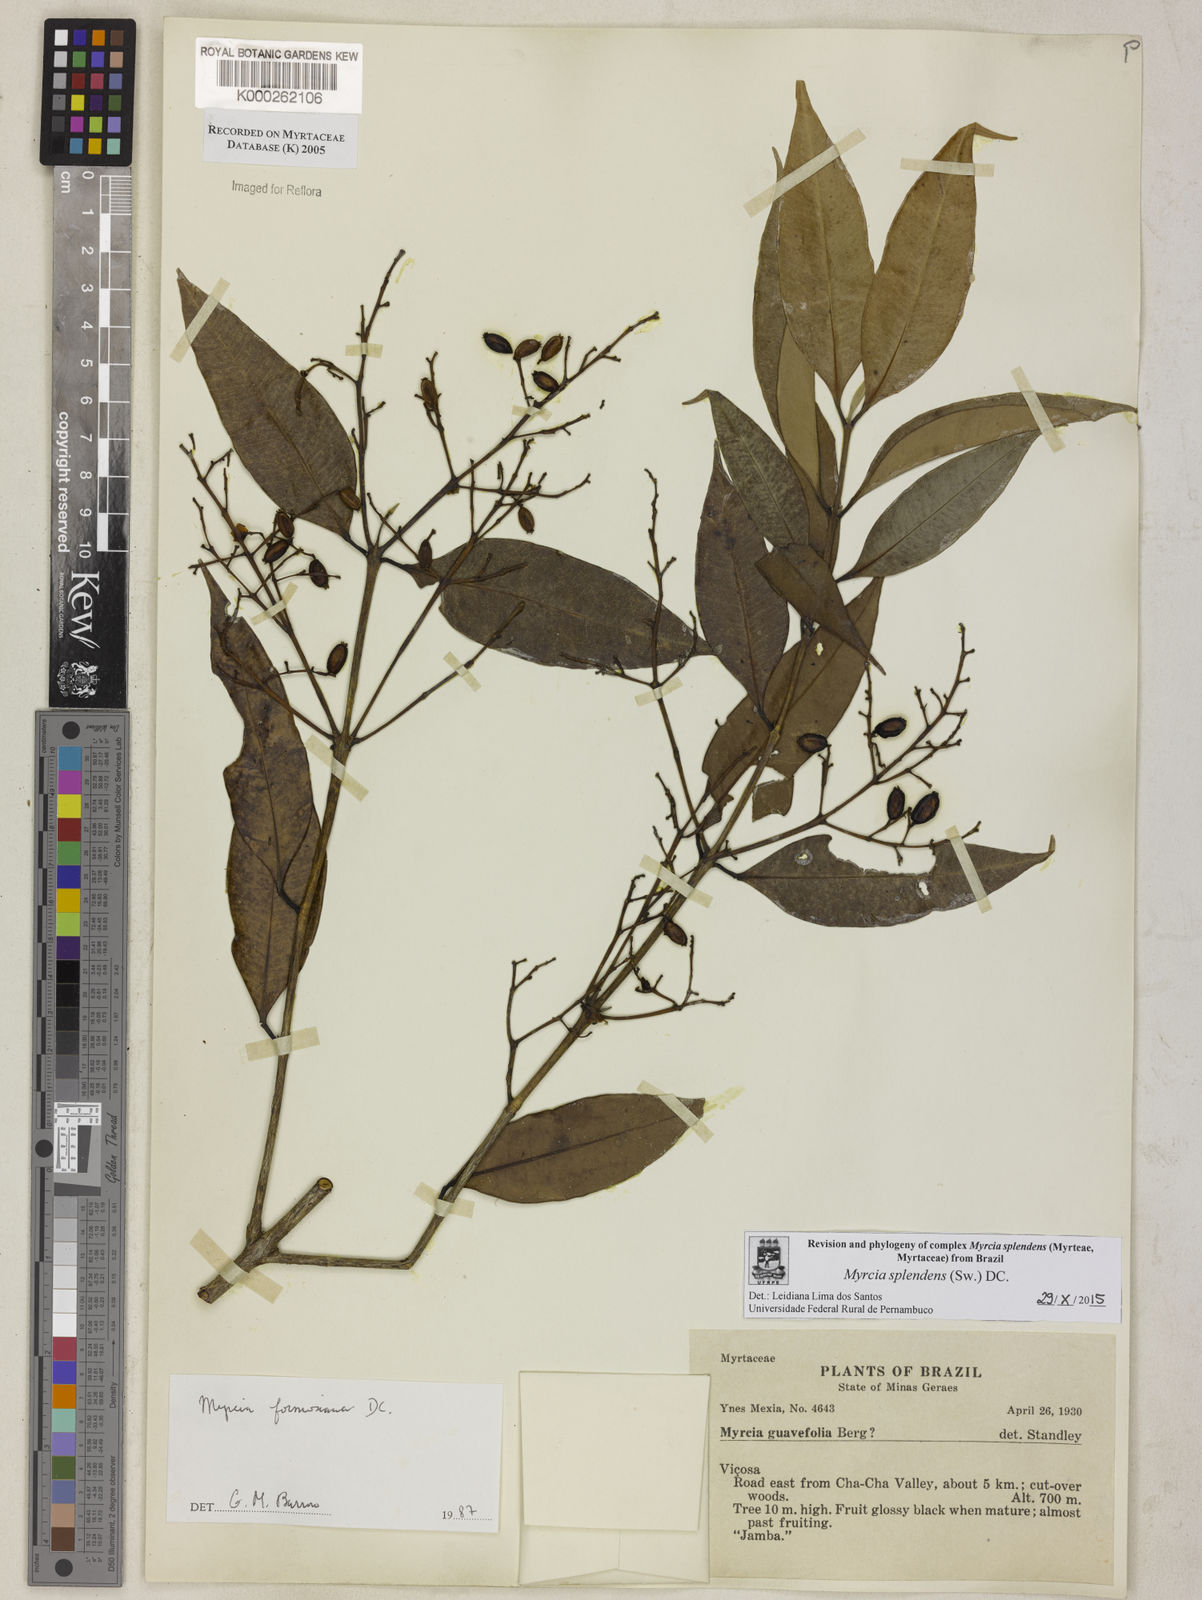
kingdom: Plantae
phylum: Tracheophyta
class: Magnoliopsida
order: Myrtales
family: Myrtaceae
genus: Myrcia
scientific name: Myrcia splendens
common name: Surinam cherry
